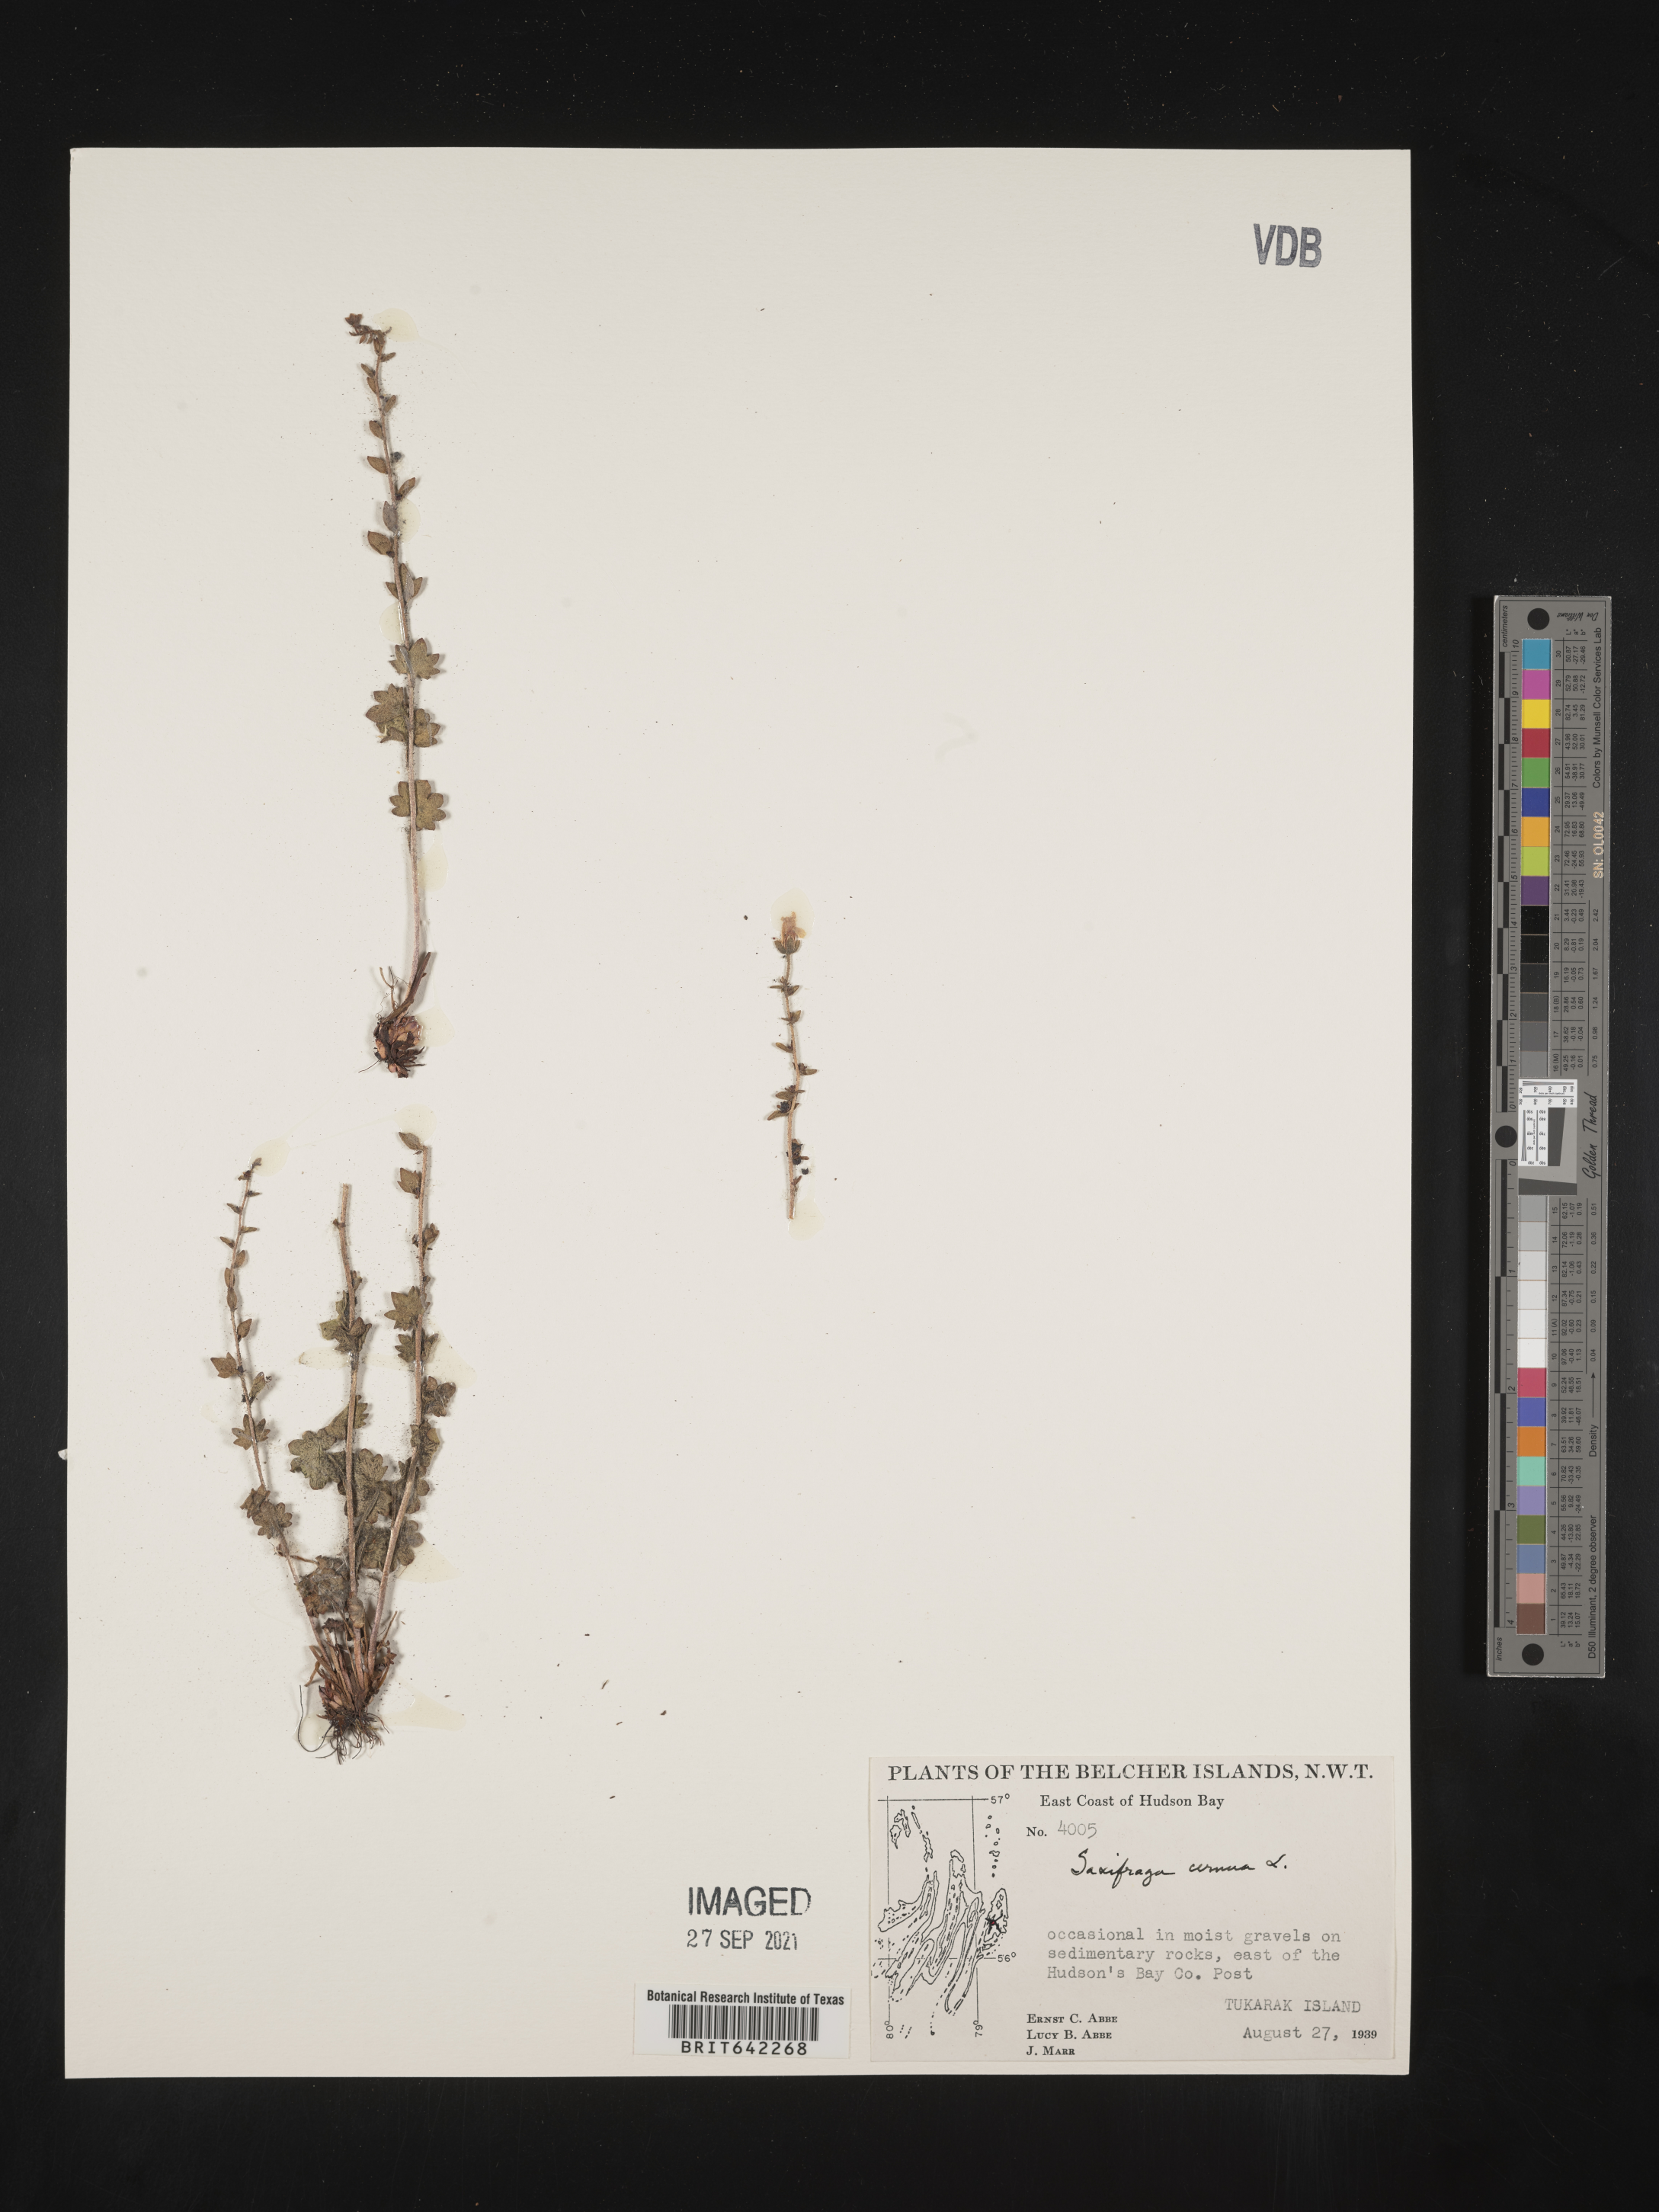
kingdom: Plantae
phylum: Tracheophyta
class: Magnoliopsida
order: Saxifragales
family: Saxifragaceae
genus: Saxifraga
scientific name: Saxifraga
